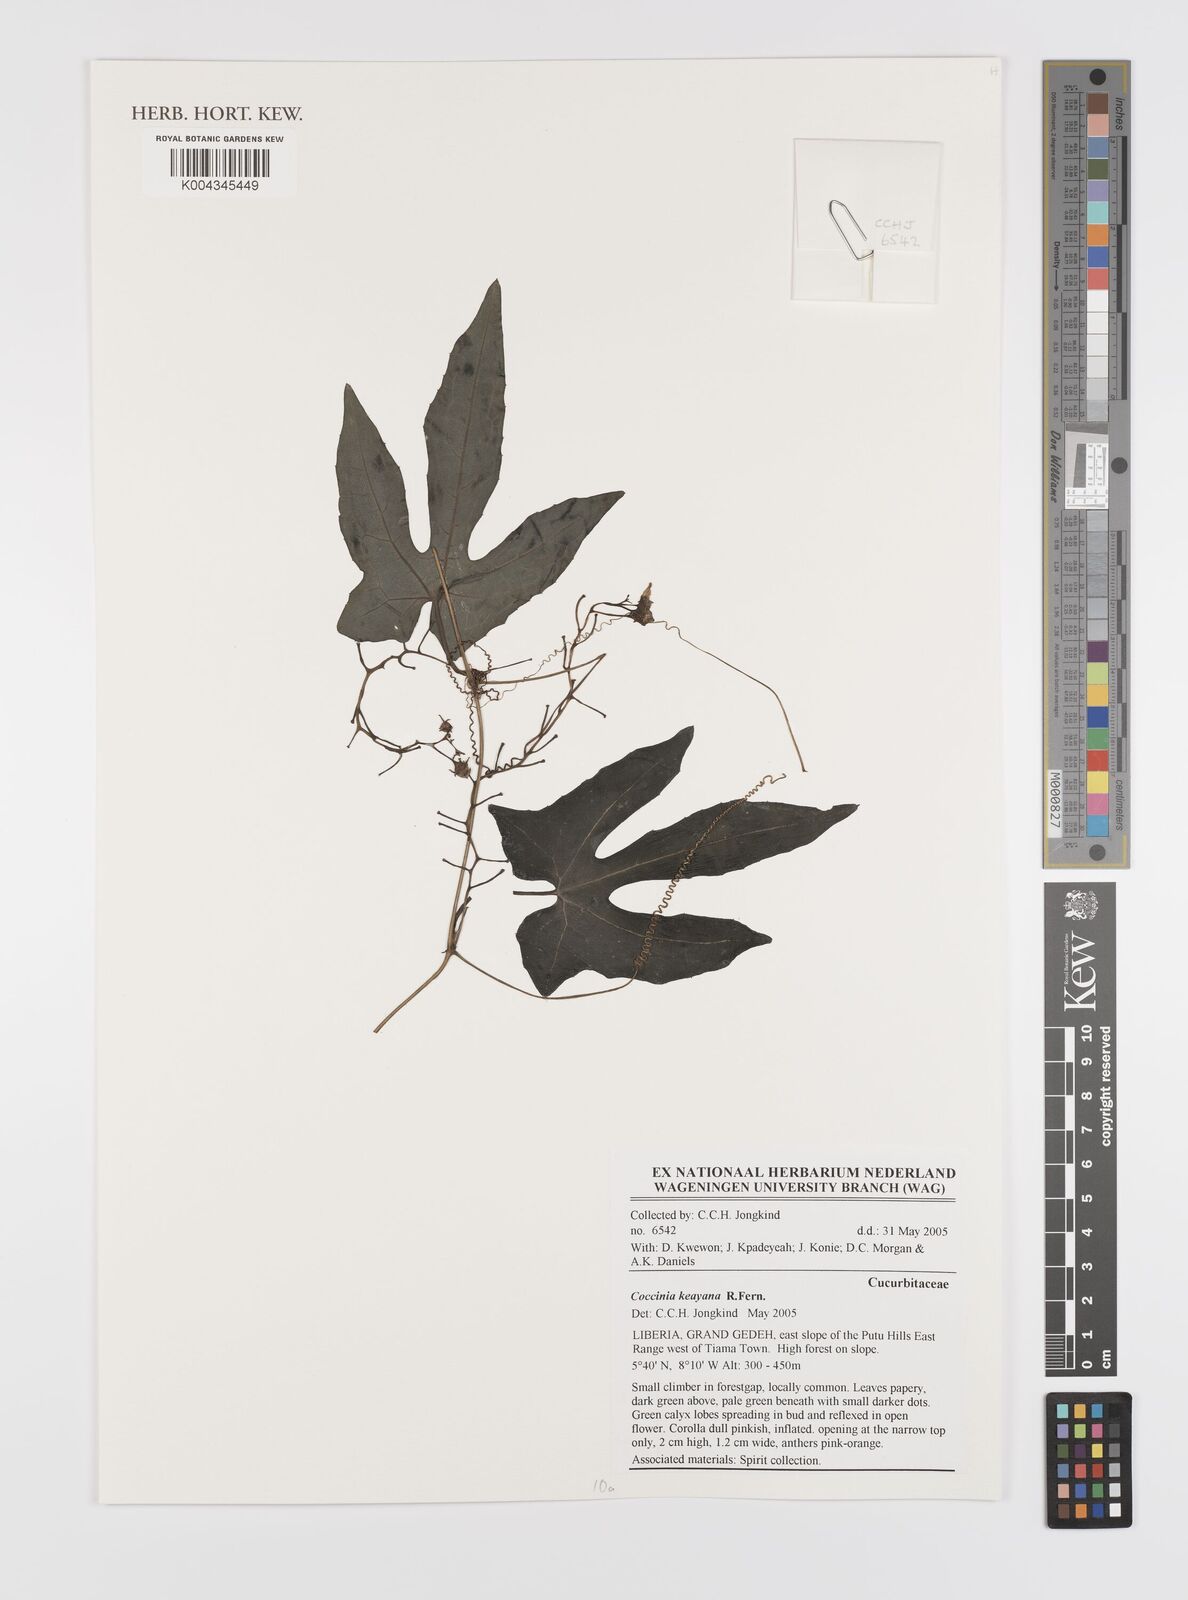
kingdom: Plantae
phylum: Tracheophyta
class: Magnoliopsida
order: Cucurbitales
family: Cucurbitaceae
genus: Coccinia
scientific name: Coccinia keayana
